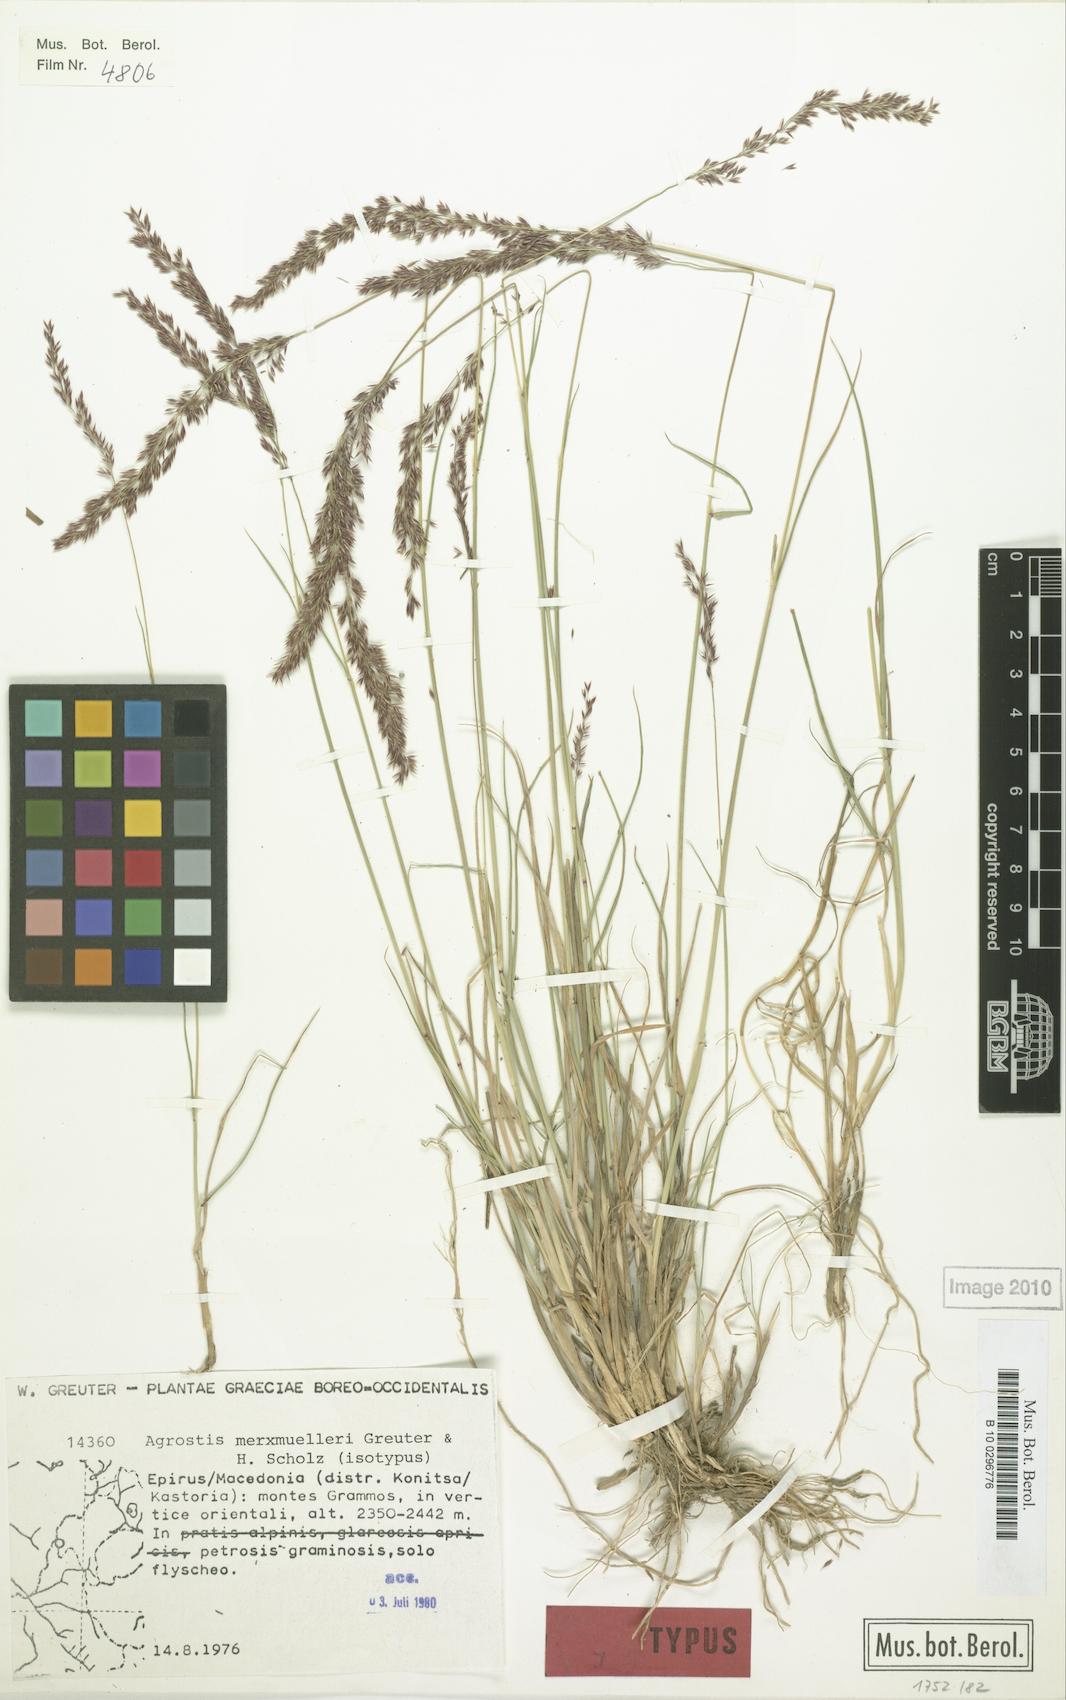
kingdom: Plantae
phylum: Tracheophyta
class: Liliopsida
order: Poales
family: Poaceae
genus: Agrostis
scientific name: Agrostis merxmuelleri
